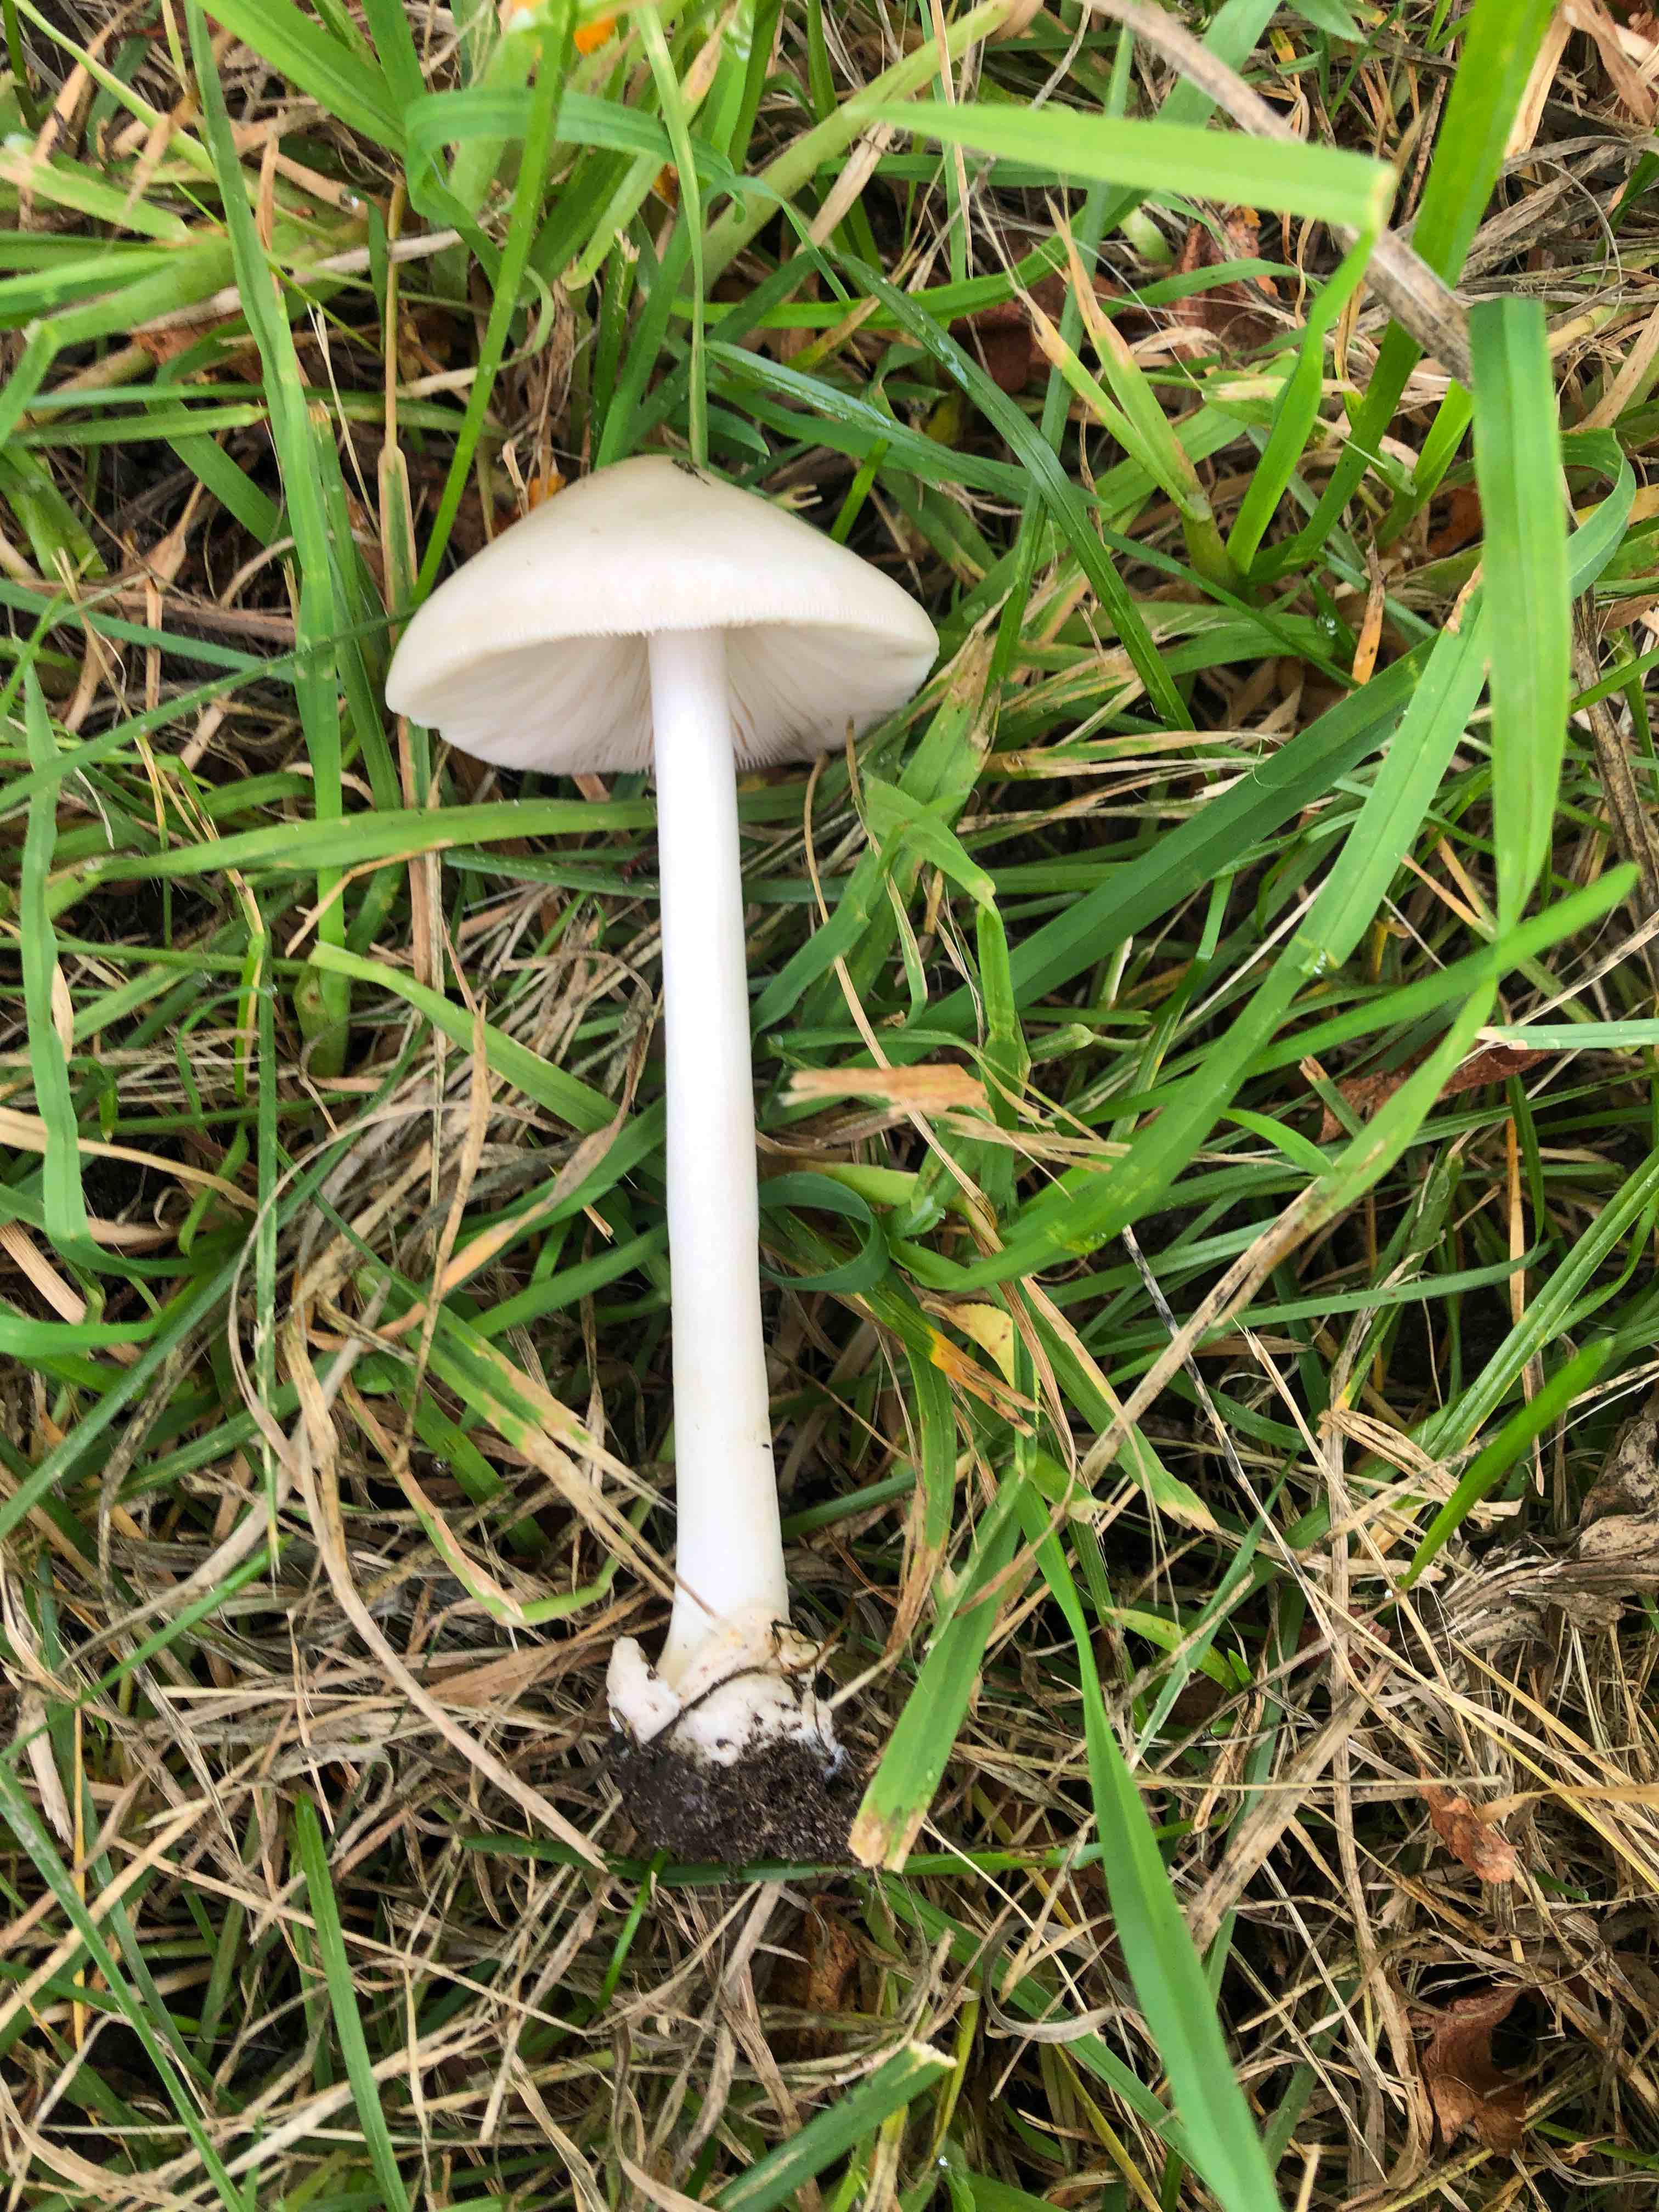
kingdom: Fungi
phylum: Basidiomycota
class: Agaricomycetes
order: Agaricales
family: Pluteaceae
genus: Volvopluteus
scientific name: Volvopluteus gloiocephalus
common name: høj posesvamp
